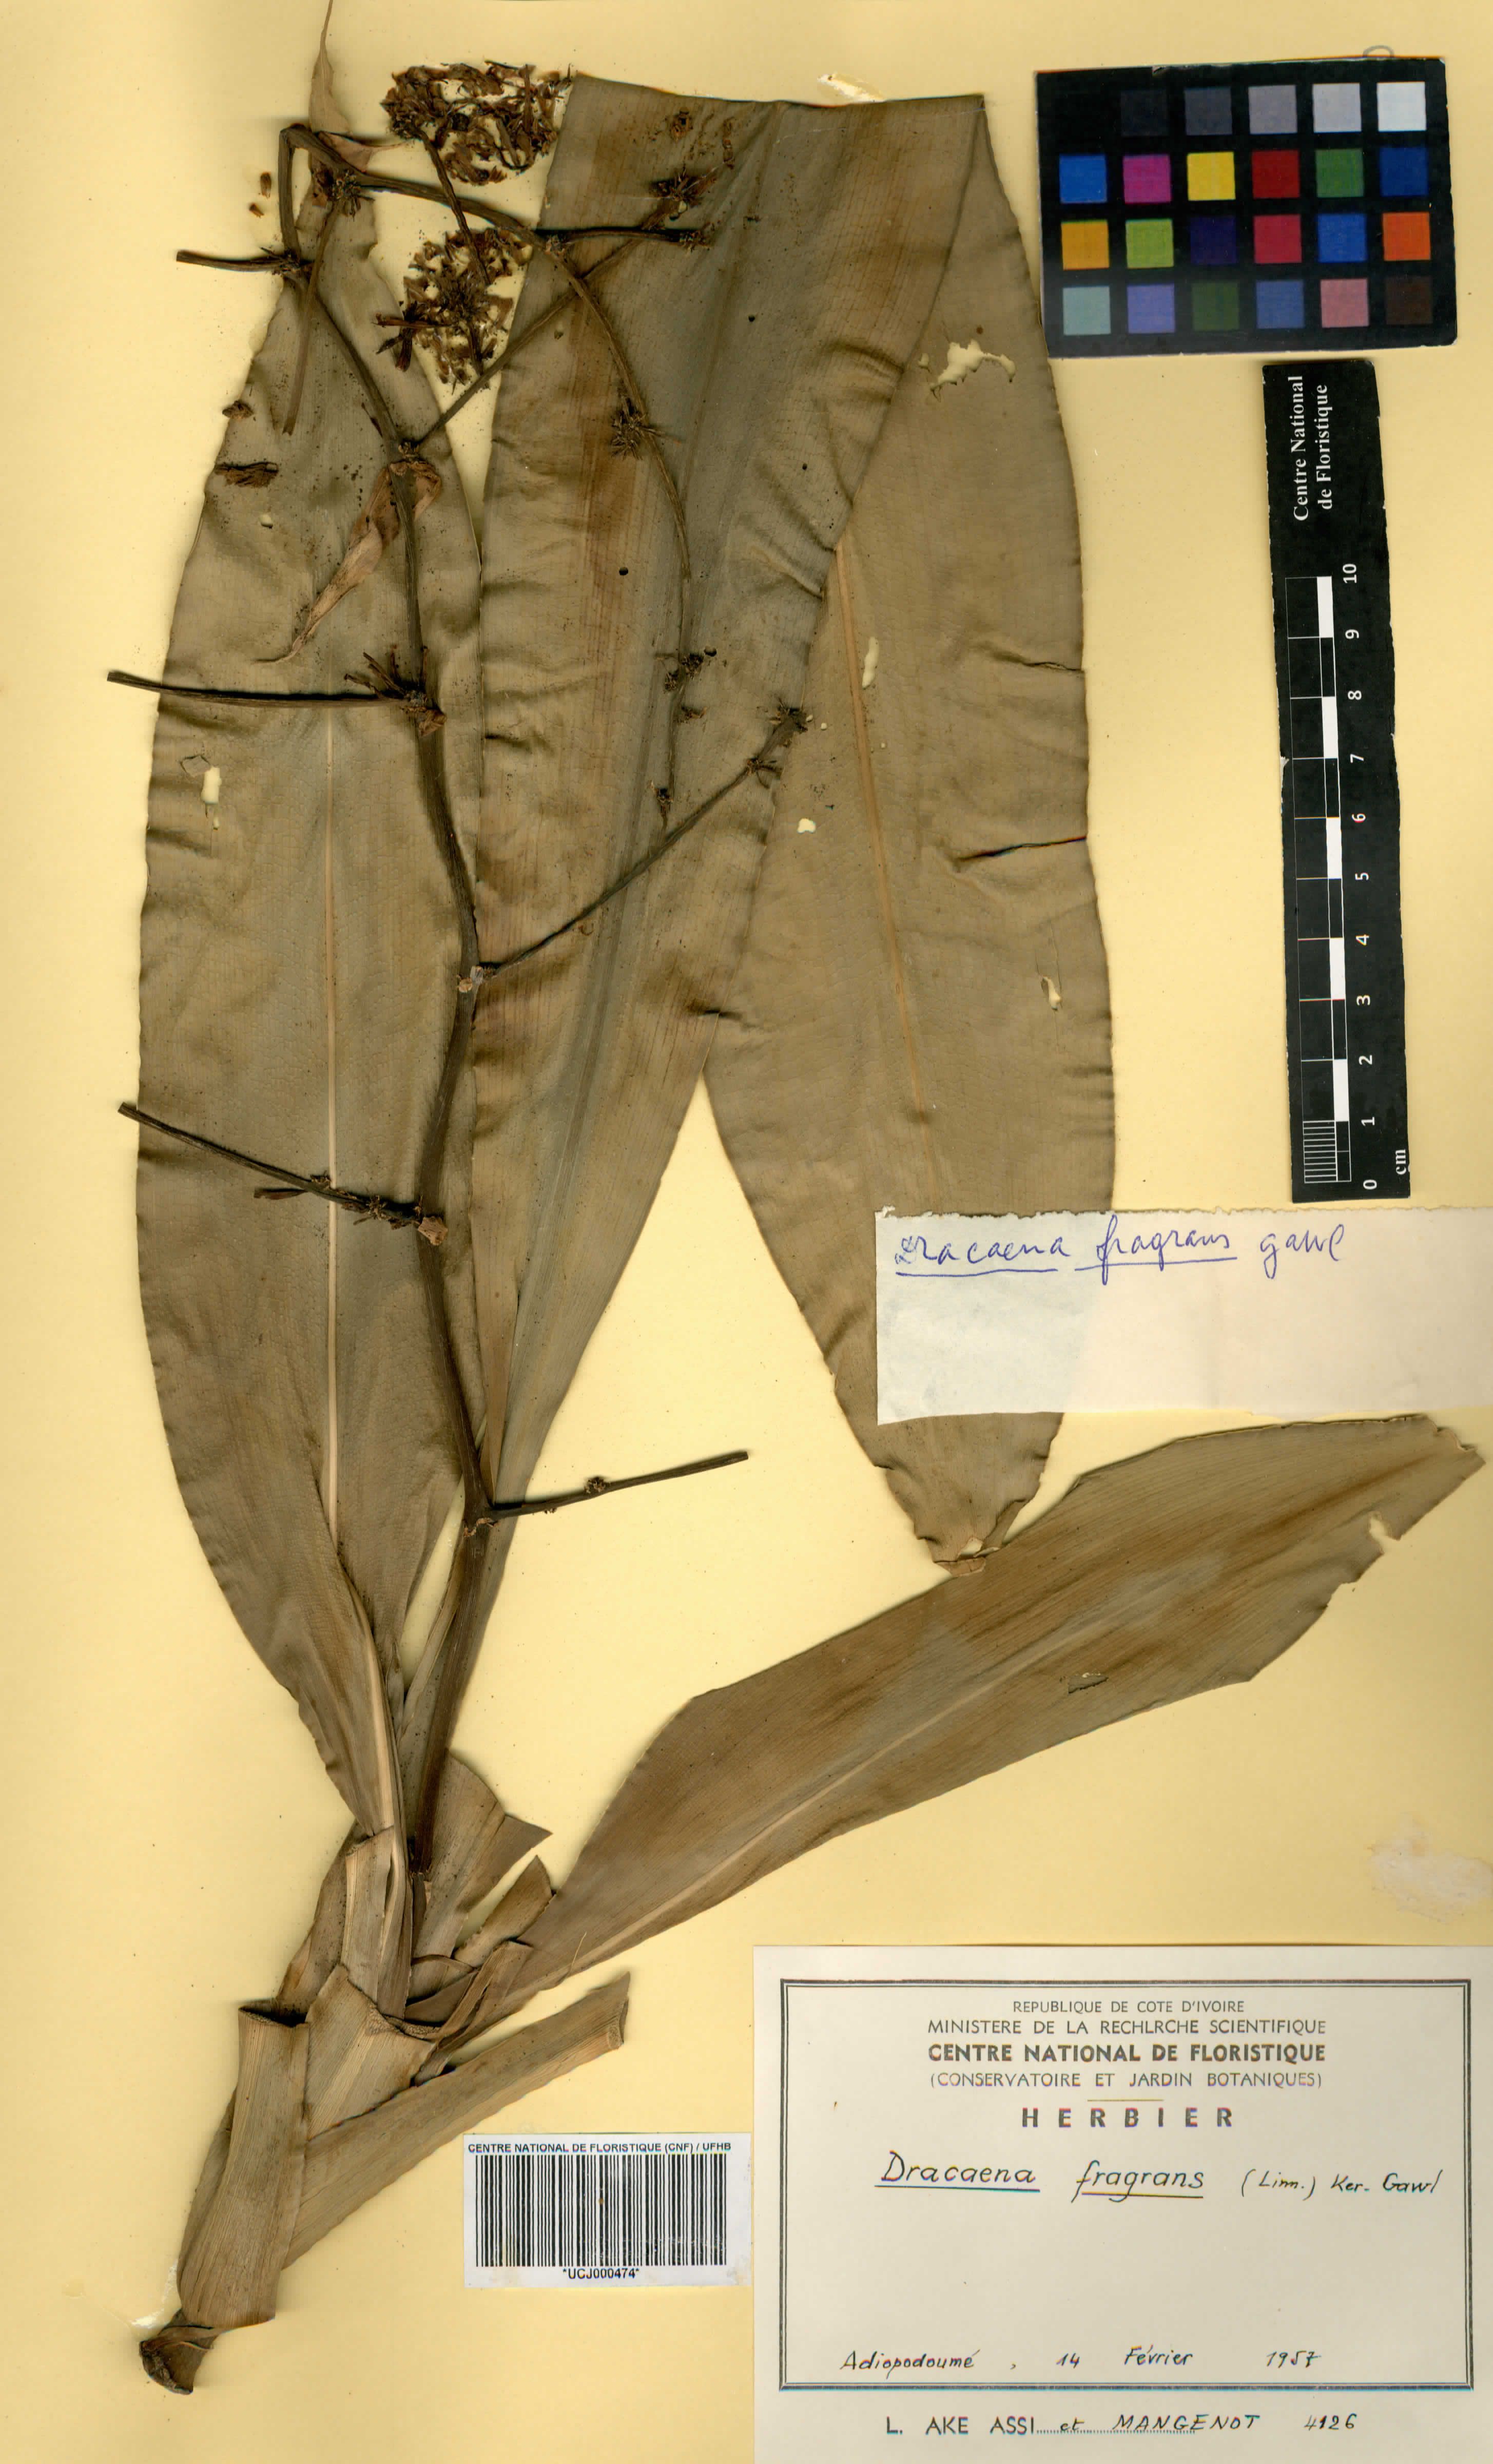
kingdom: Plantae
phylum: Tracheophyta
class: Liliopsida
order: Asparagales
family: Asparagaceae
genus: Dracaena
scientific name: Dracaena fragrans
